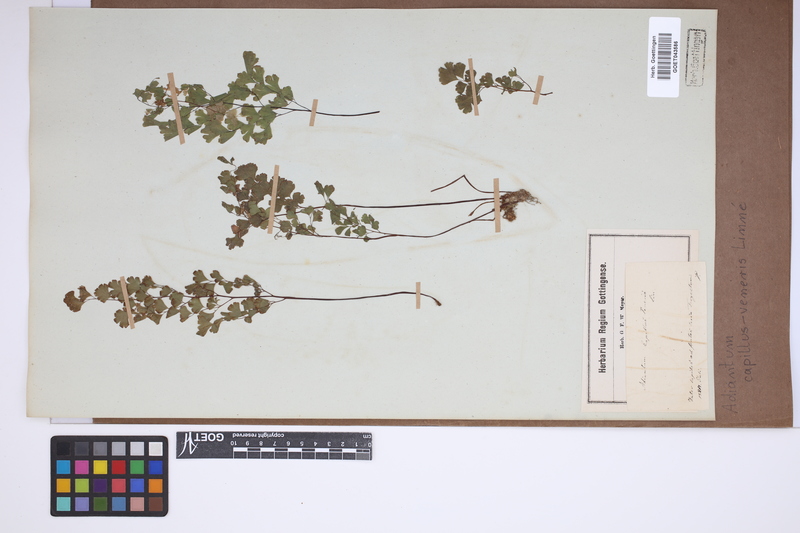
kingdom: Plantae
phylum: Tracheophyta
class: Polypodiopsida
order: Polypodiales
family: Pteridaceae
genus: Adiantum
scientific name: Adiantum capillus-veneris
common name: Maidenhair fern
